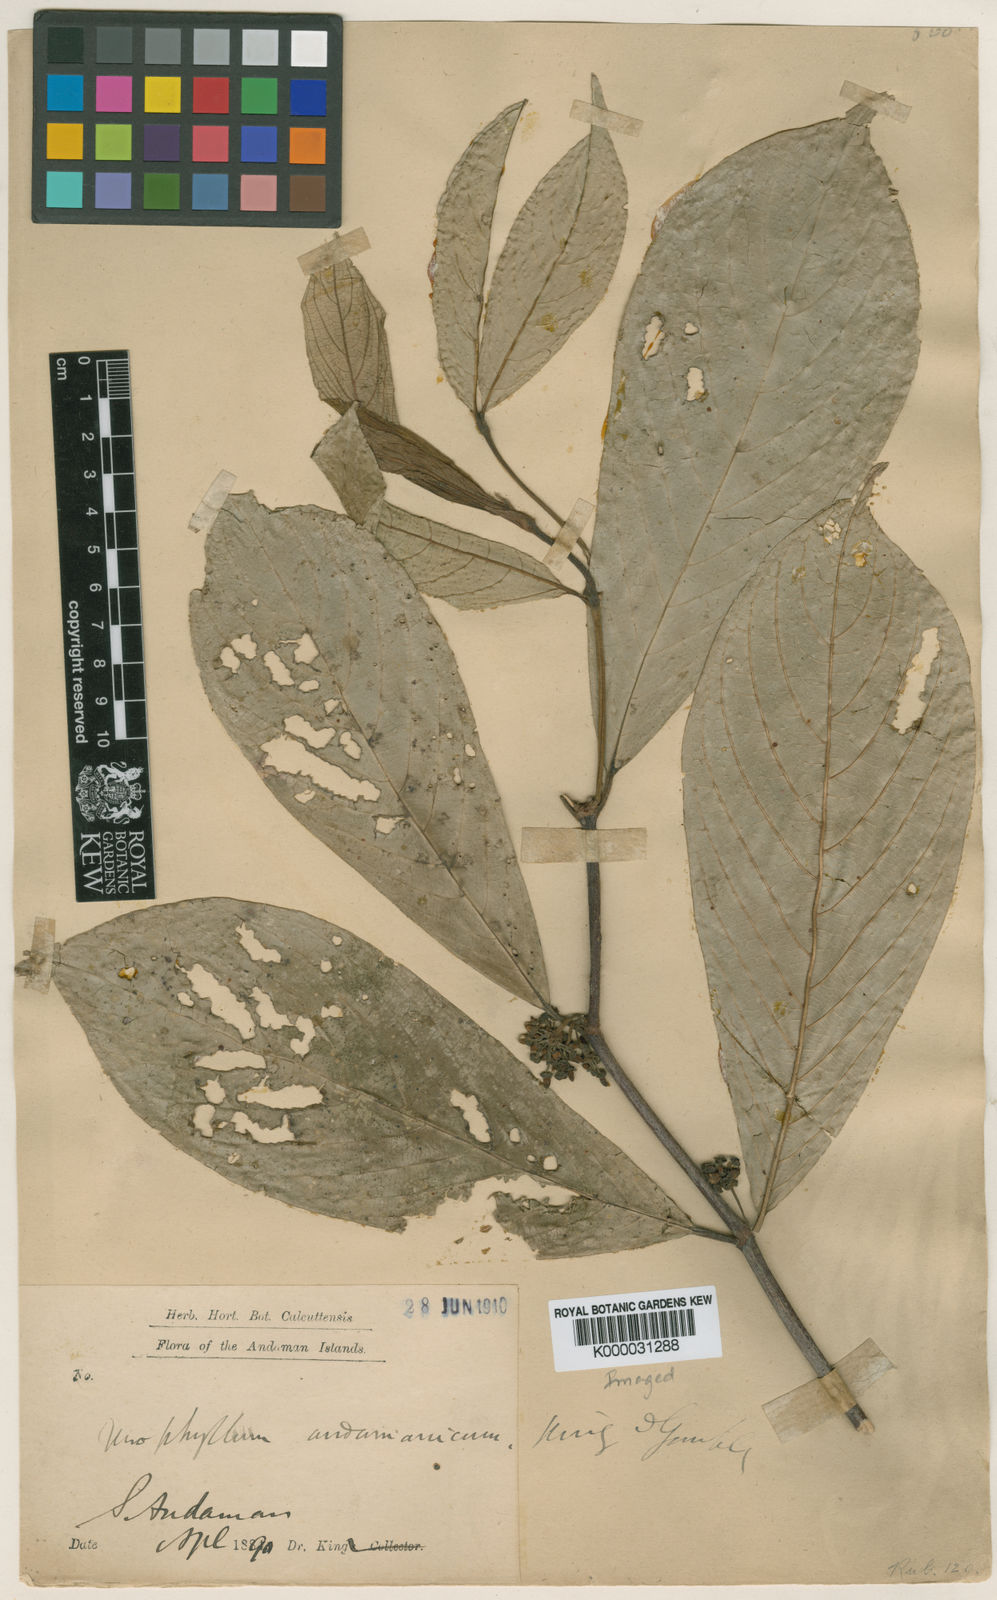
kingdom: Plantae
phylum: Tracheophyta
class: Magnoliopsida
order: Gentianales
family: Rubiaceae
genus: Urophyllum
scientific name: Urophyllum andamanicum
